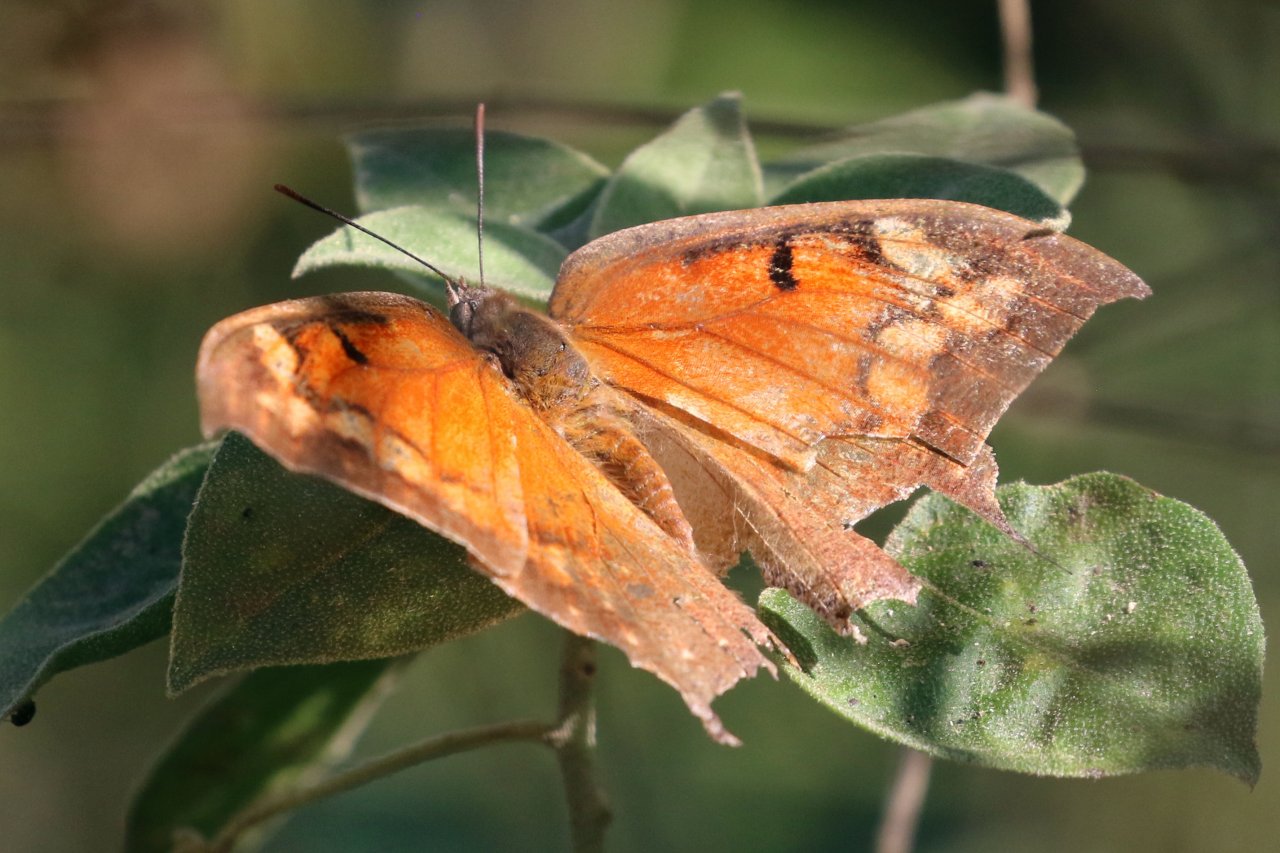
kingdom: Animalia
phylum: Arthropoda
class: Insecta
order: Lepidoptera
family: Nymphalidae
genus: Anaea
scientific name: Anaea aidea
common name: Tropical Leafwing
